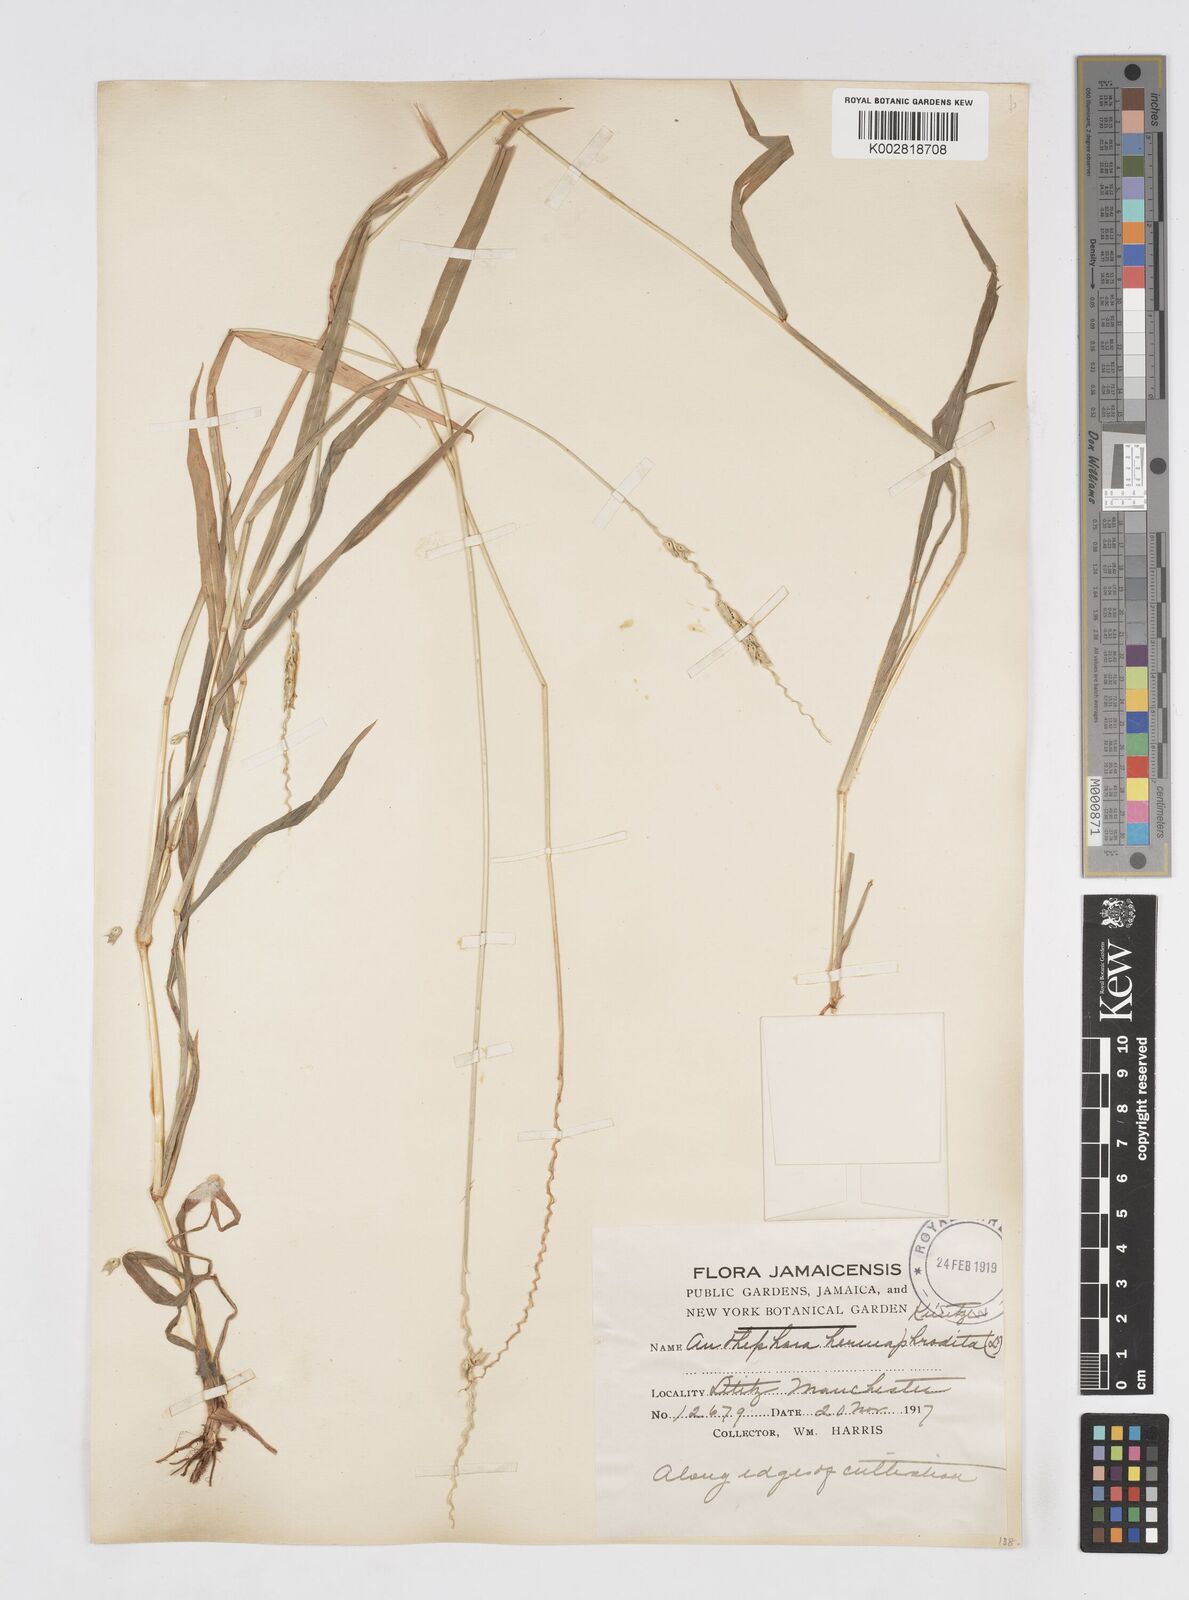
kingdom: Plantae
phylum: Tracheophyta
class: Liliopsida
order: Poales
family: Poaceae
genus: Anthephora
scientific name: Anthephora hermaphrodita
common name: Oldfield grass
